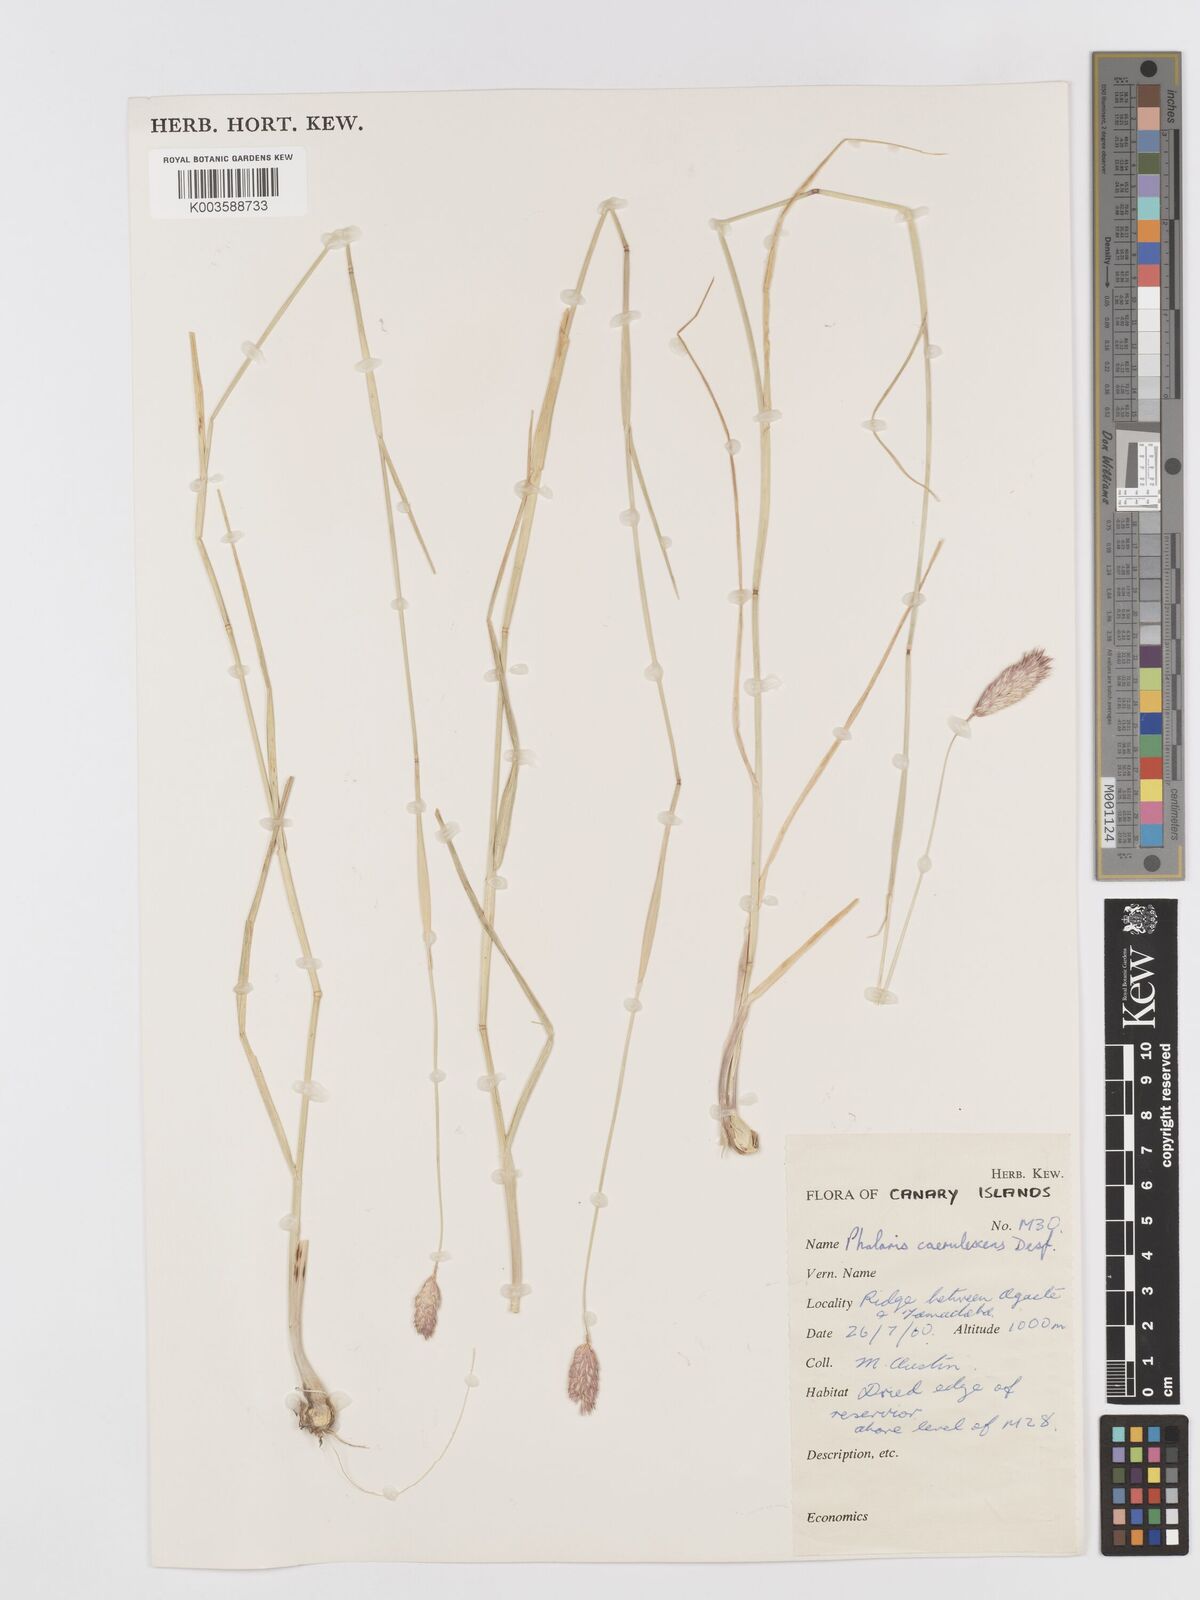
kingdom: Plantae
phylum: Tracheophyta
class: Liliopsida
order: Poales
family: Poaceae
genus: Phalaris
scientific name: Phalaris coerulescens
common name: Sunolgrass
